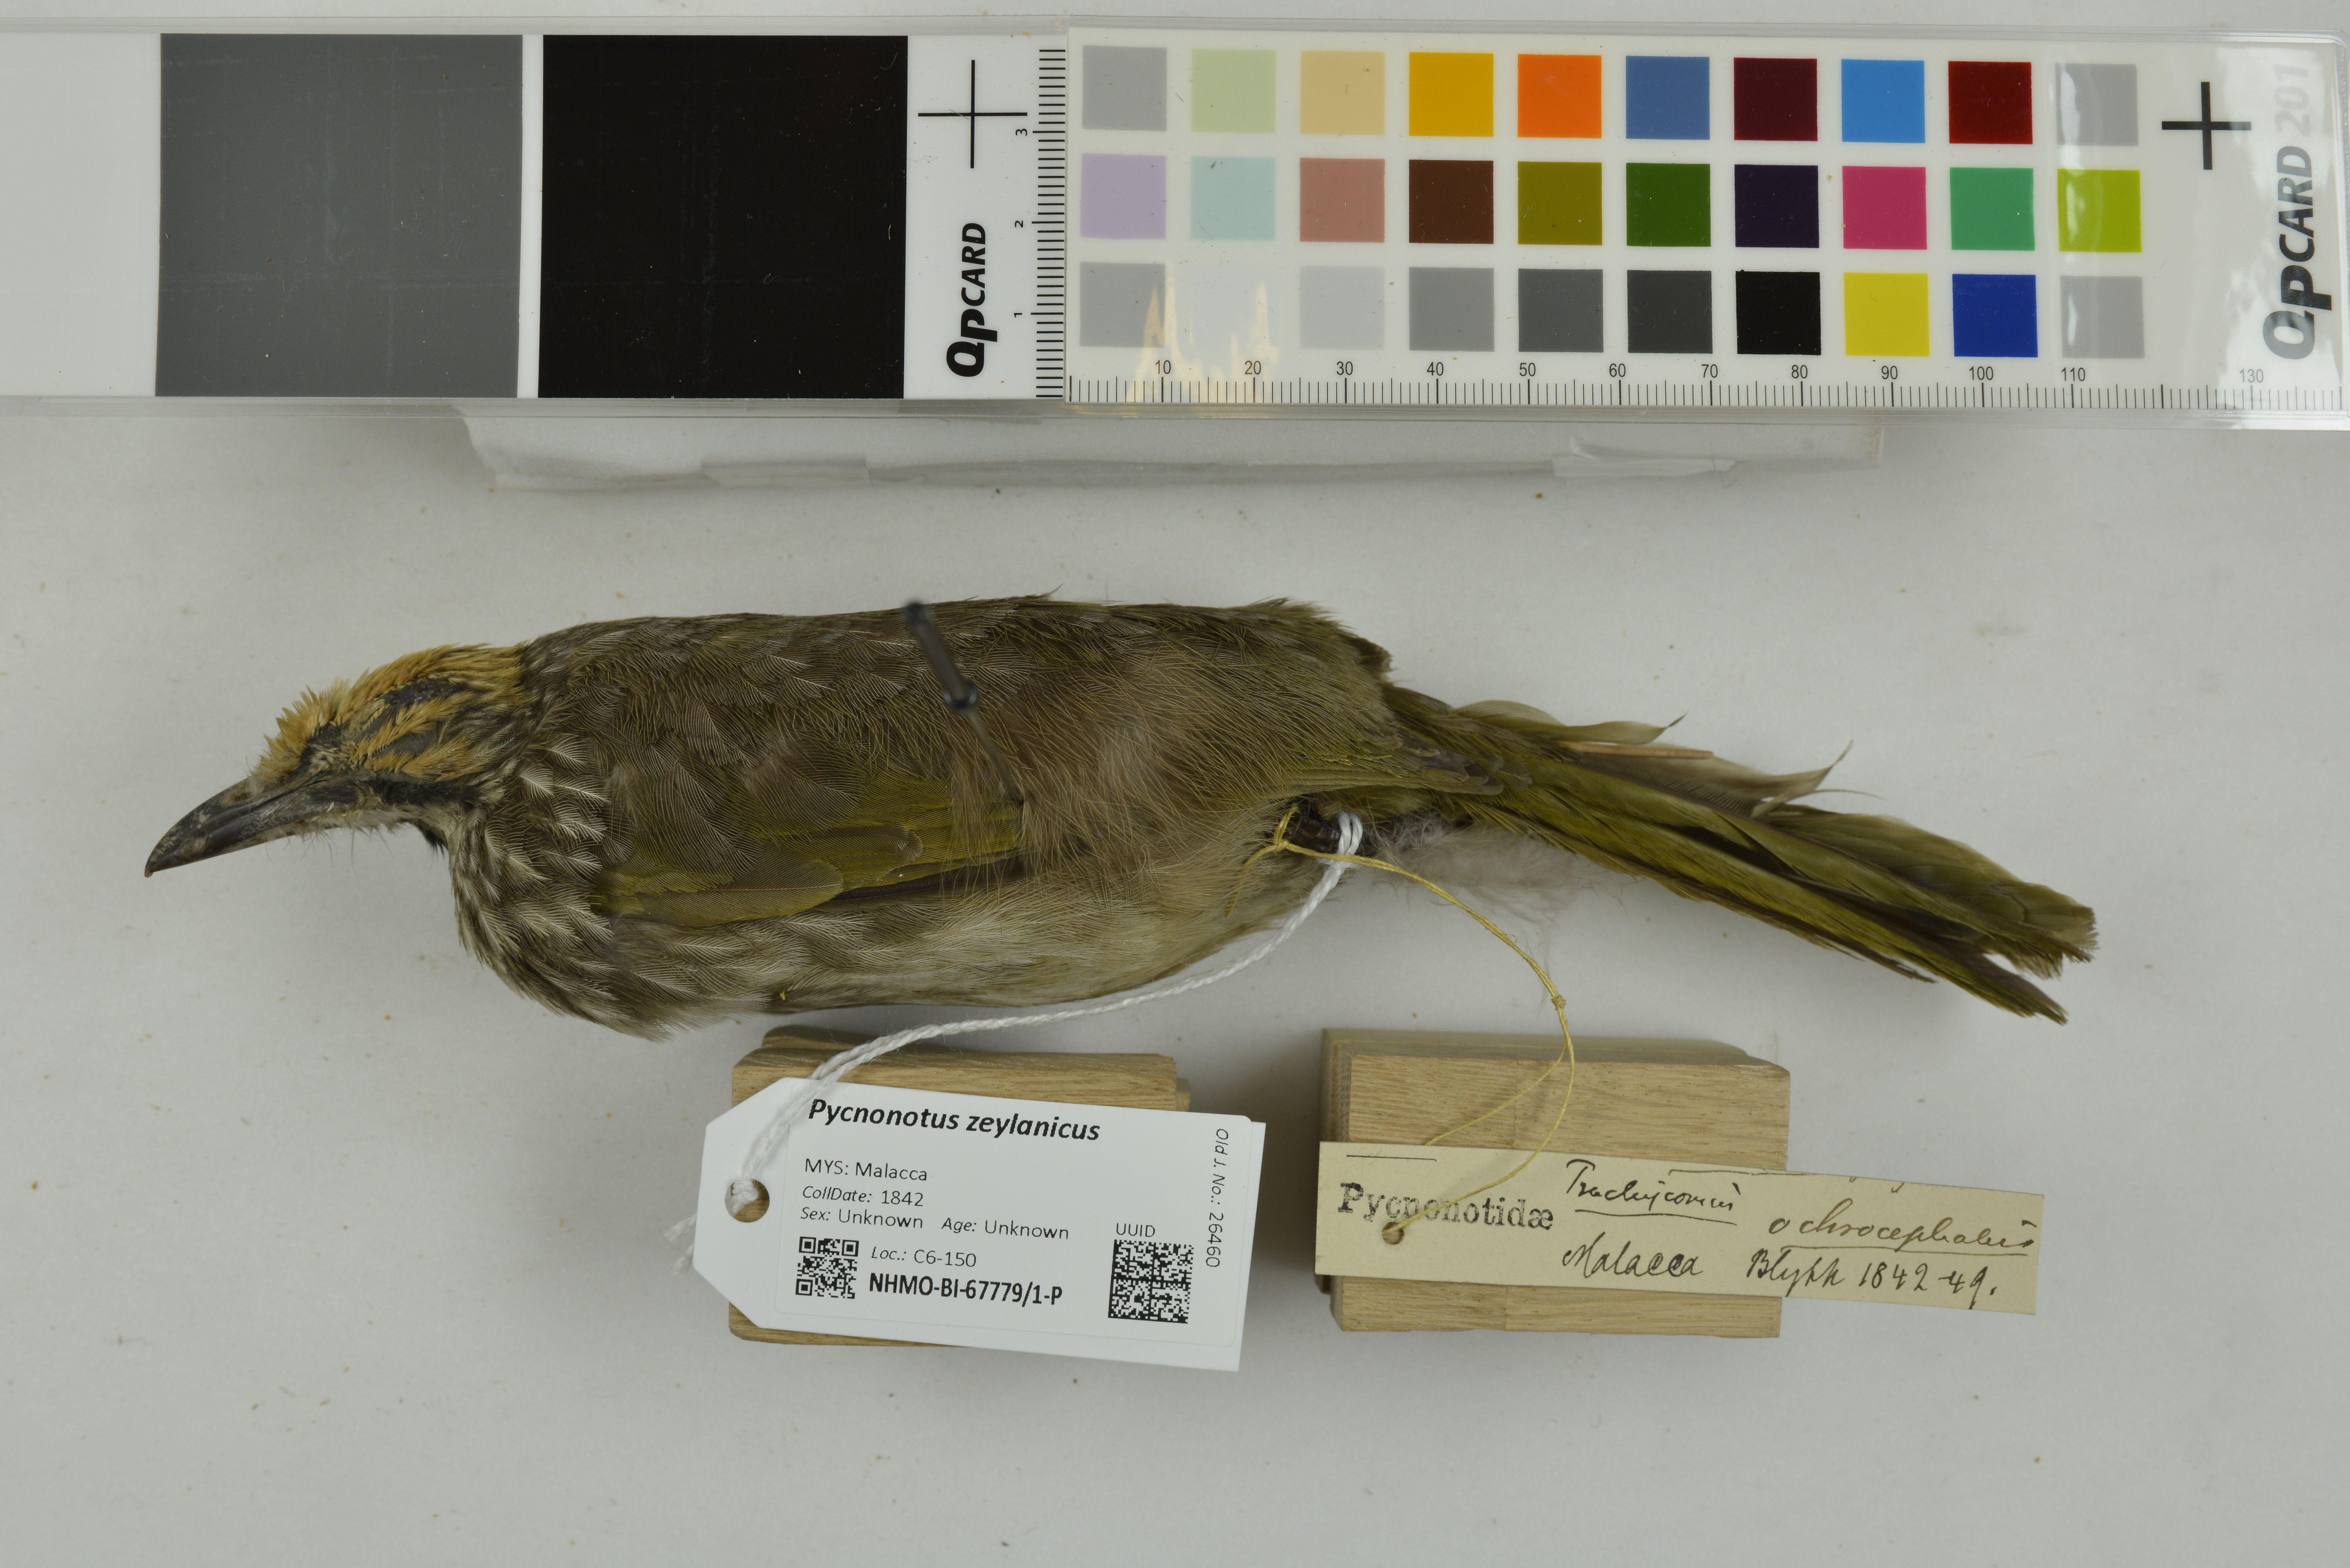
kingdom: Animalia
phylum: Chordata
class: Aves
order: Passeriformes
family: Pycnonotidae
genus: Pycnonotus
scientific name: Pycnonotus zeylanicus
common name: Straw-headed bulbul
